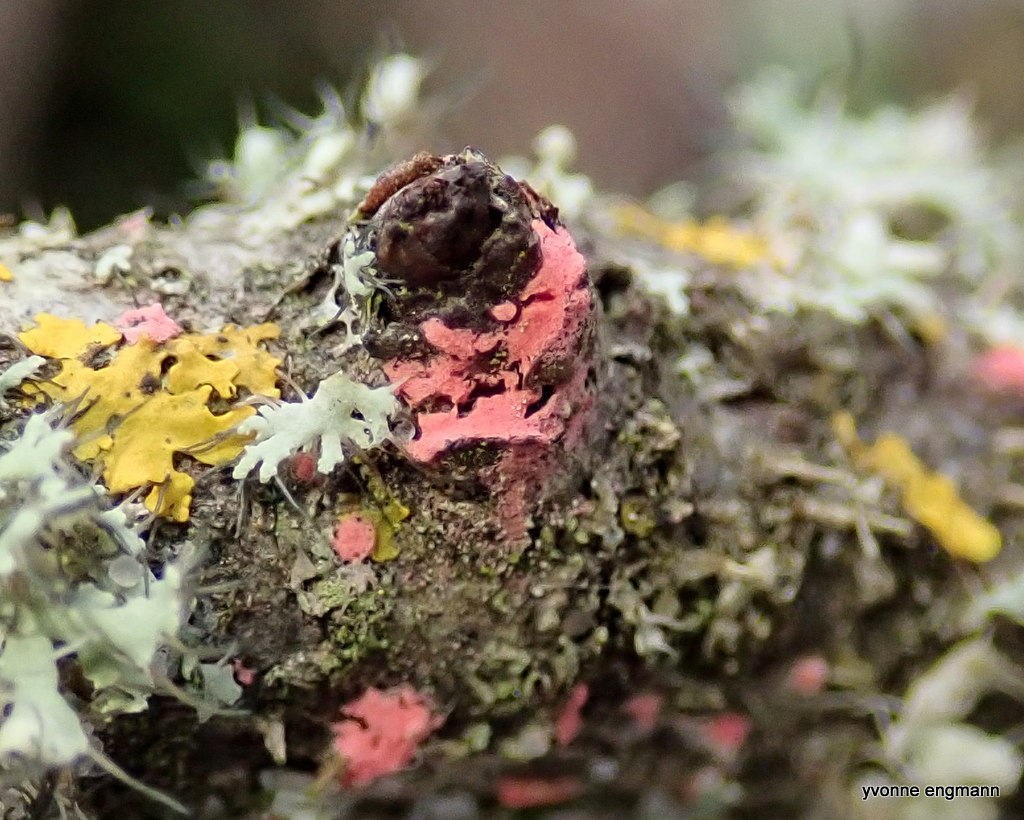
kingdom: Fungi
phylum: Ascomycota
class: Sordariomycetes
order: Hypocreales
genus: Illosporiopsis
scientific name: Illosporiopsis christiansenii
